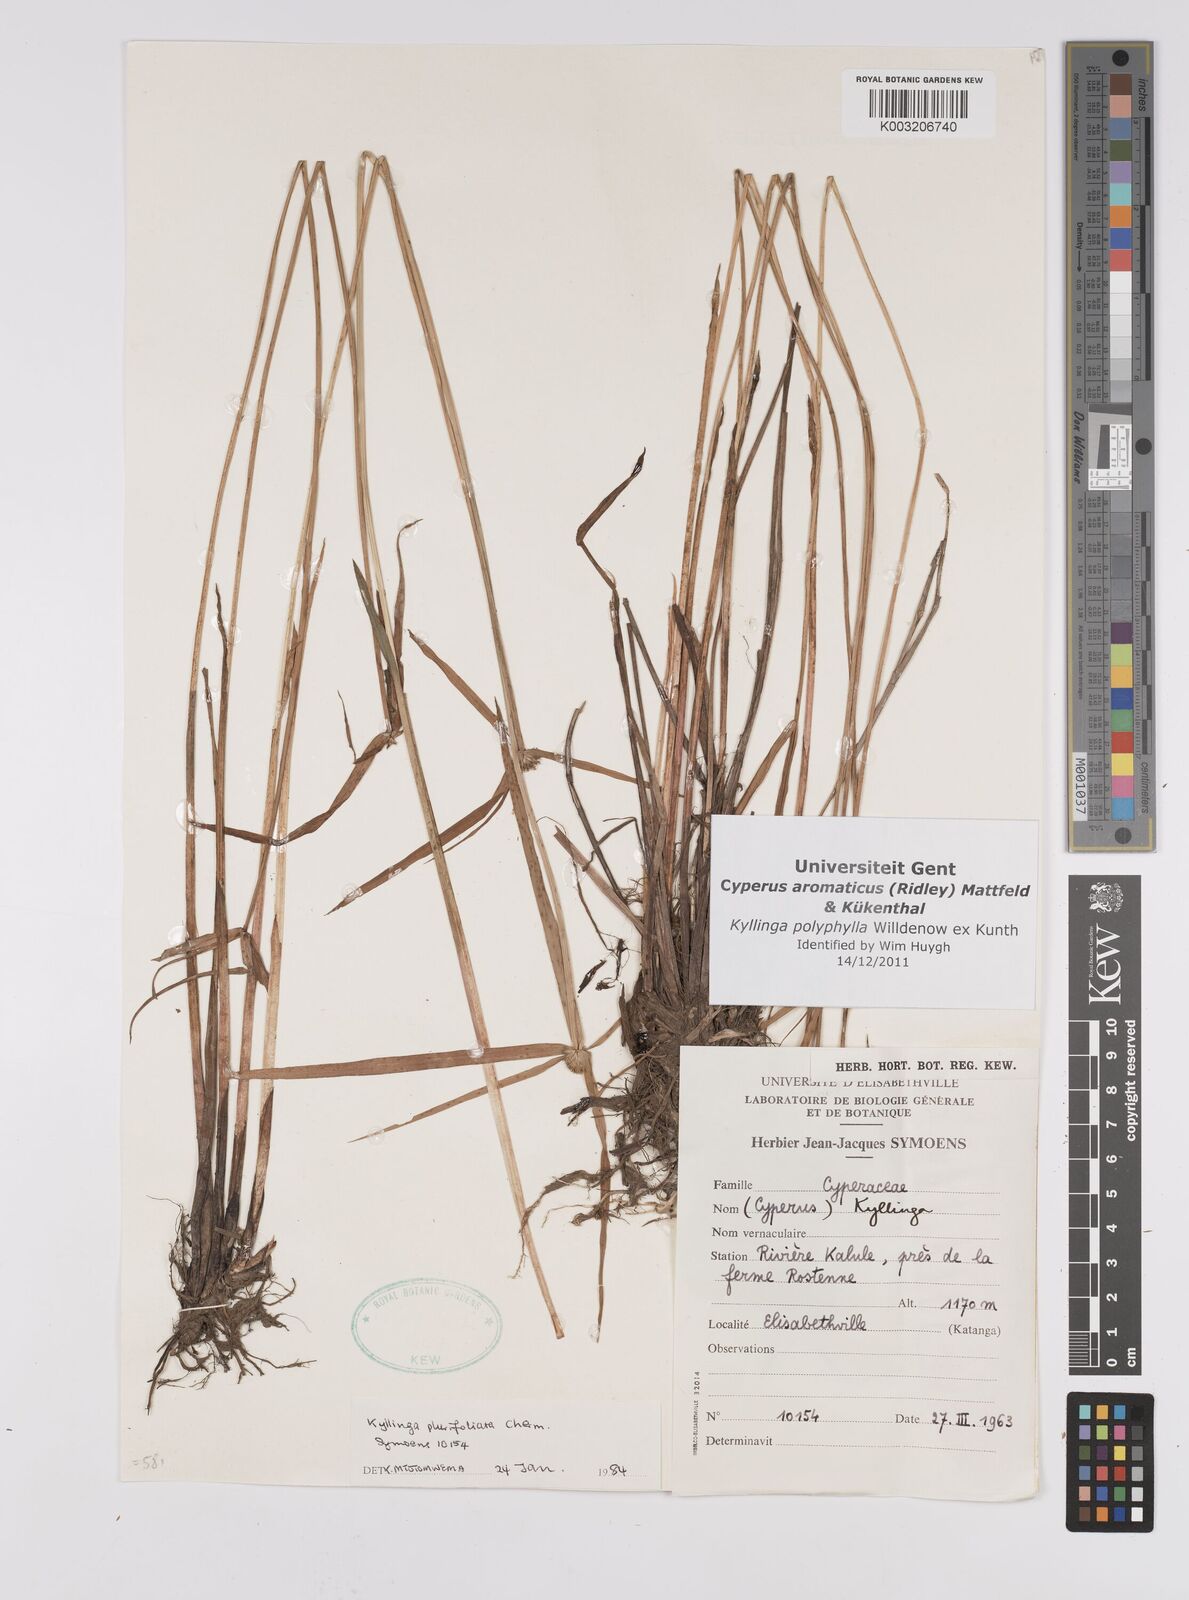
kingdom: Plantae
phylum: Tracheophyta
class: Liliopsida
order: Poales
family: Cyperaceae
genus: Cyperus
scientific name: Cyperus
